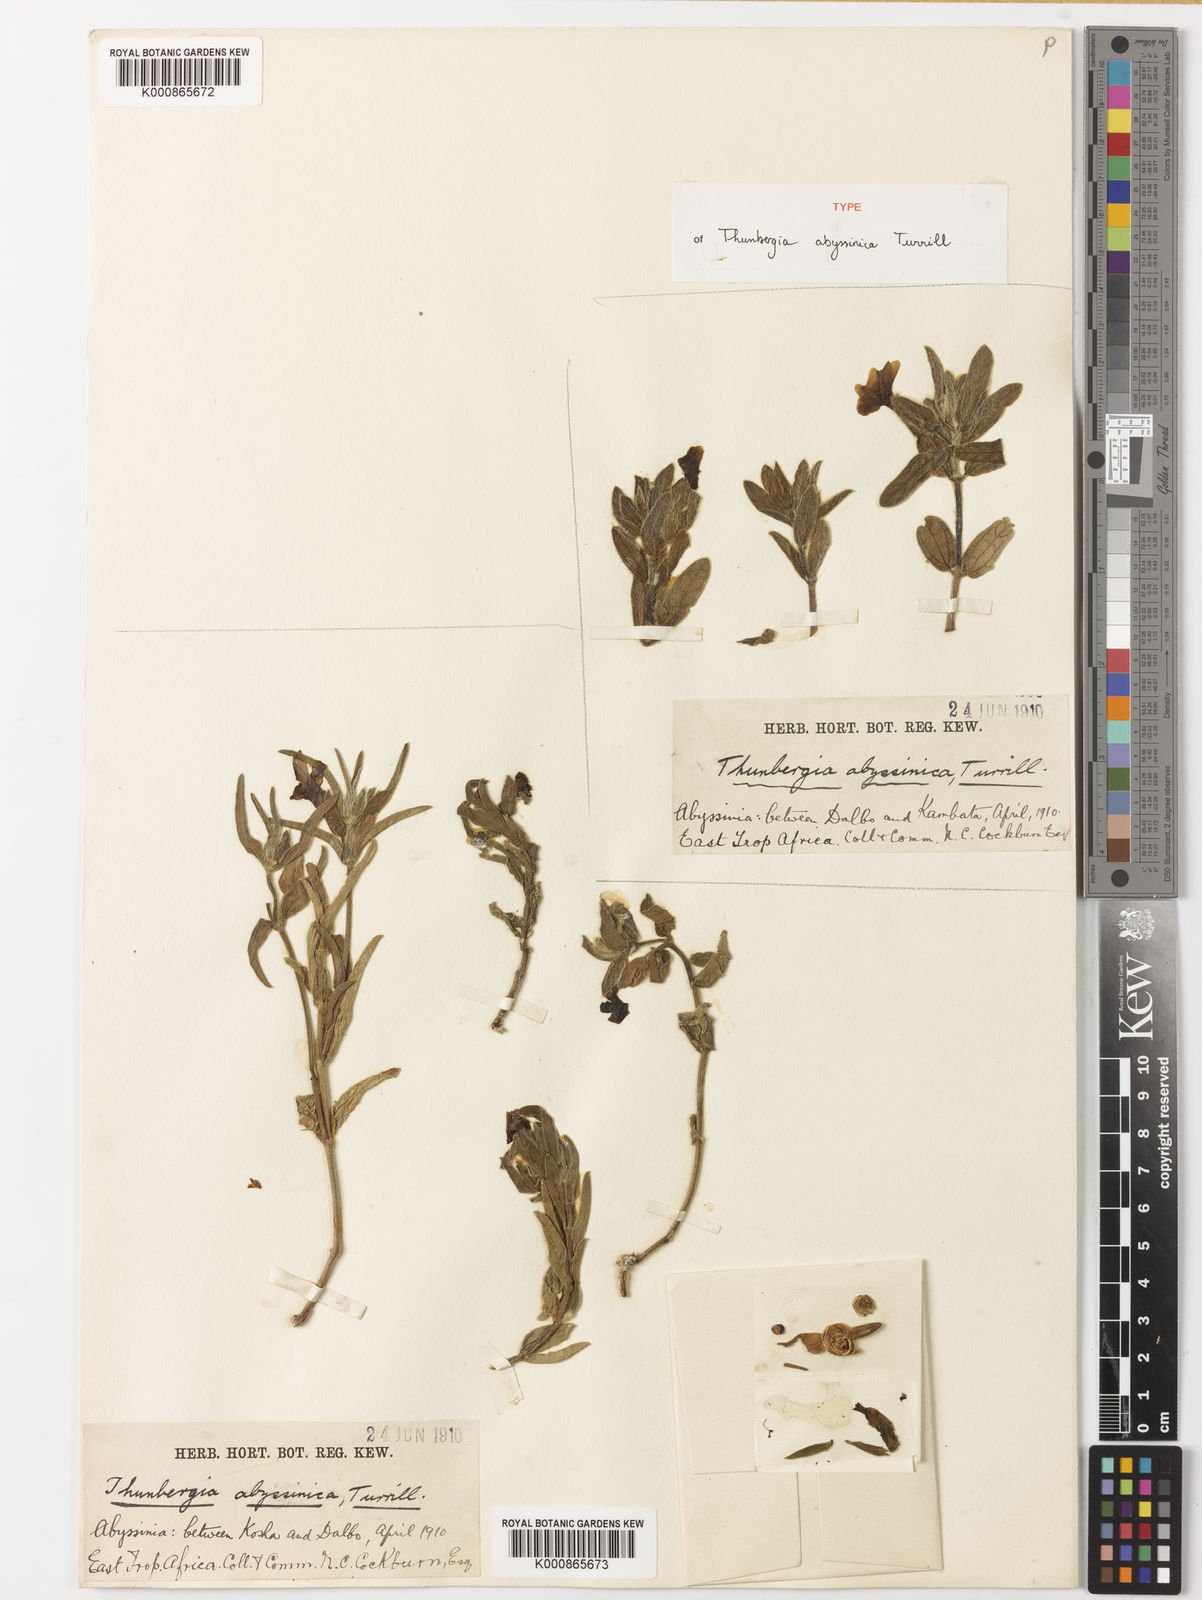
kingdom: Plantae
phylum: Tracheophyta
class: Magnoliopsida
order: Lamiales
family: Acanthaceae
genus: Thunbergia
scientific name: Thunbergia ruspolii
